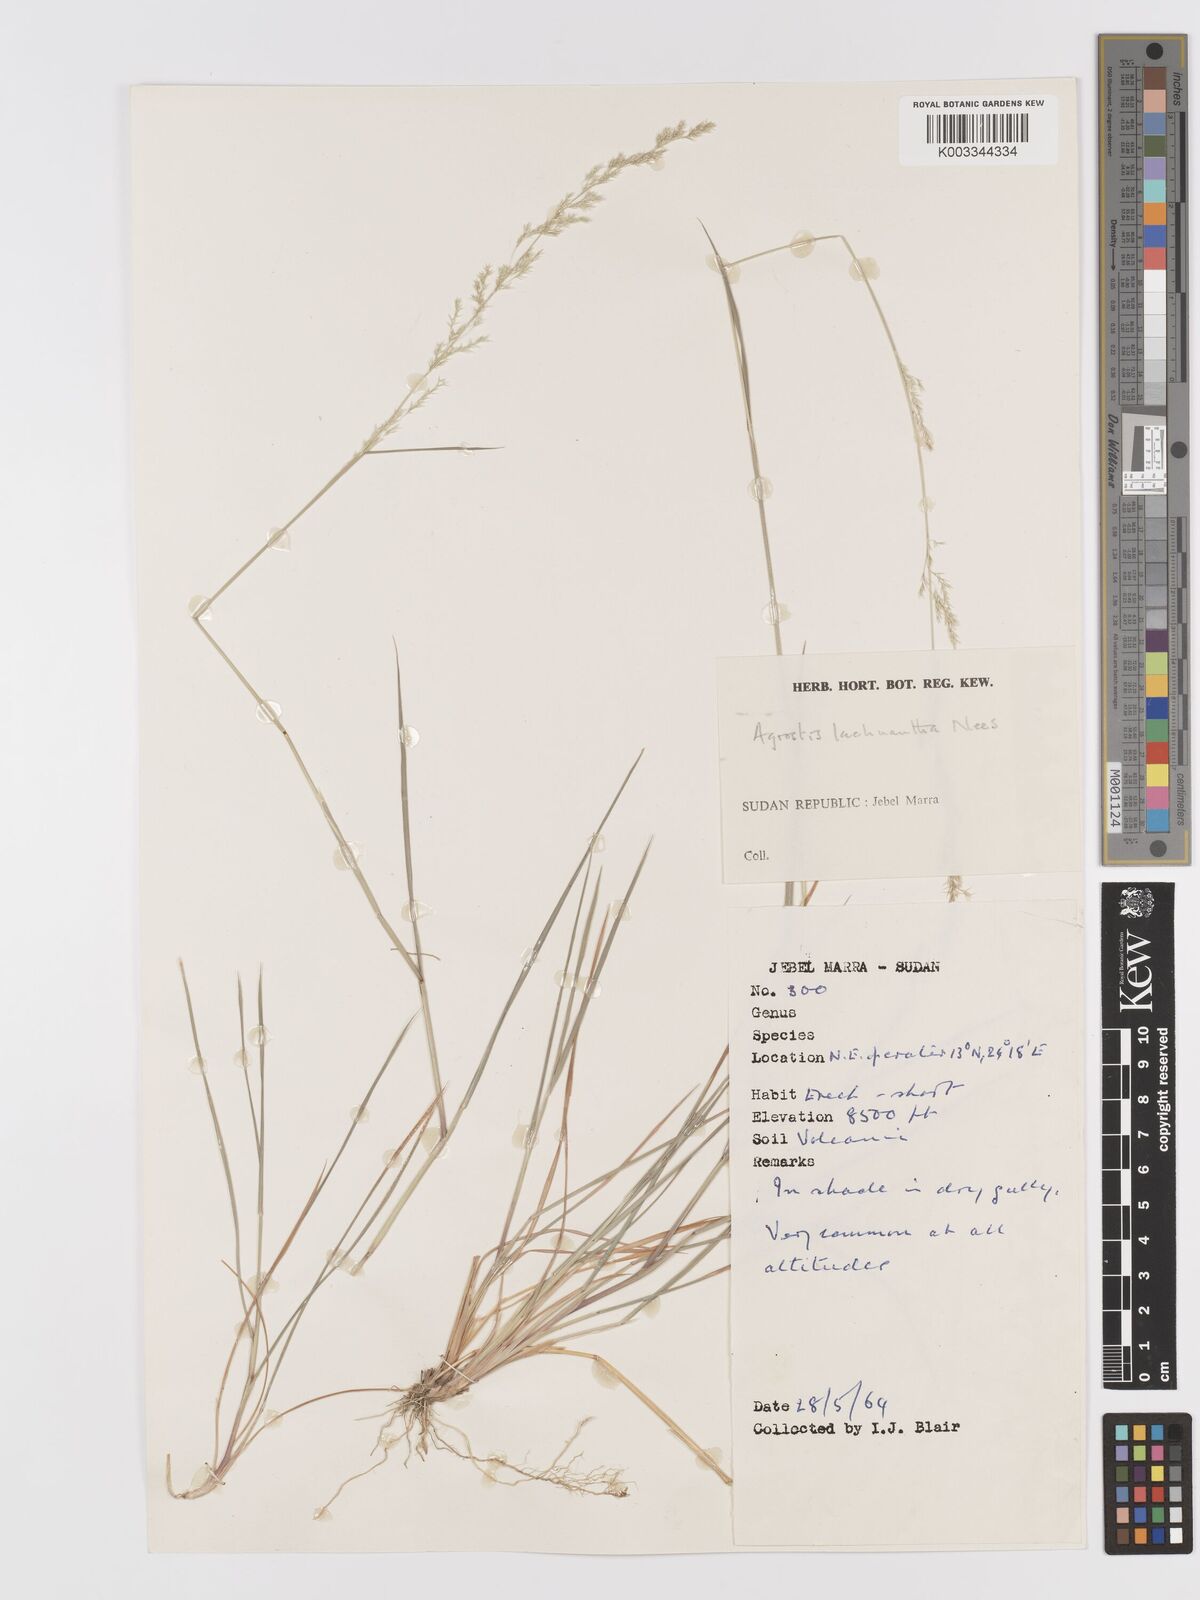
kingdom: Plantae
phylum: Tracheophyta
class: Liliopsida
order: Poales
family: Poaceae
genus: Lachnagrostis
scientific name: Lachnagrostis lachnantha
